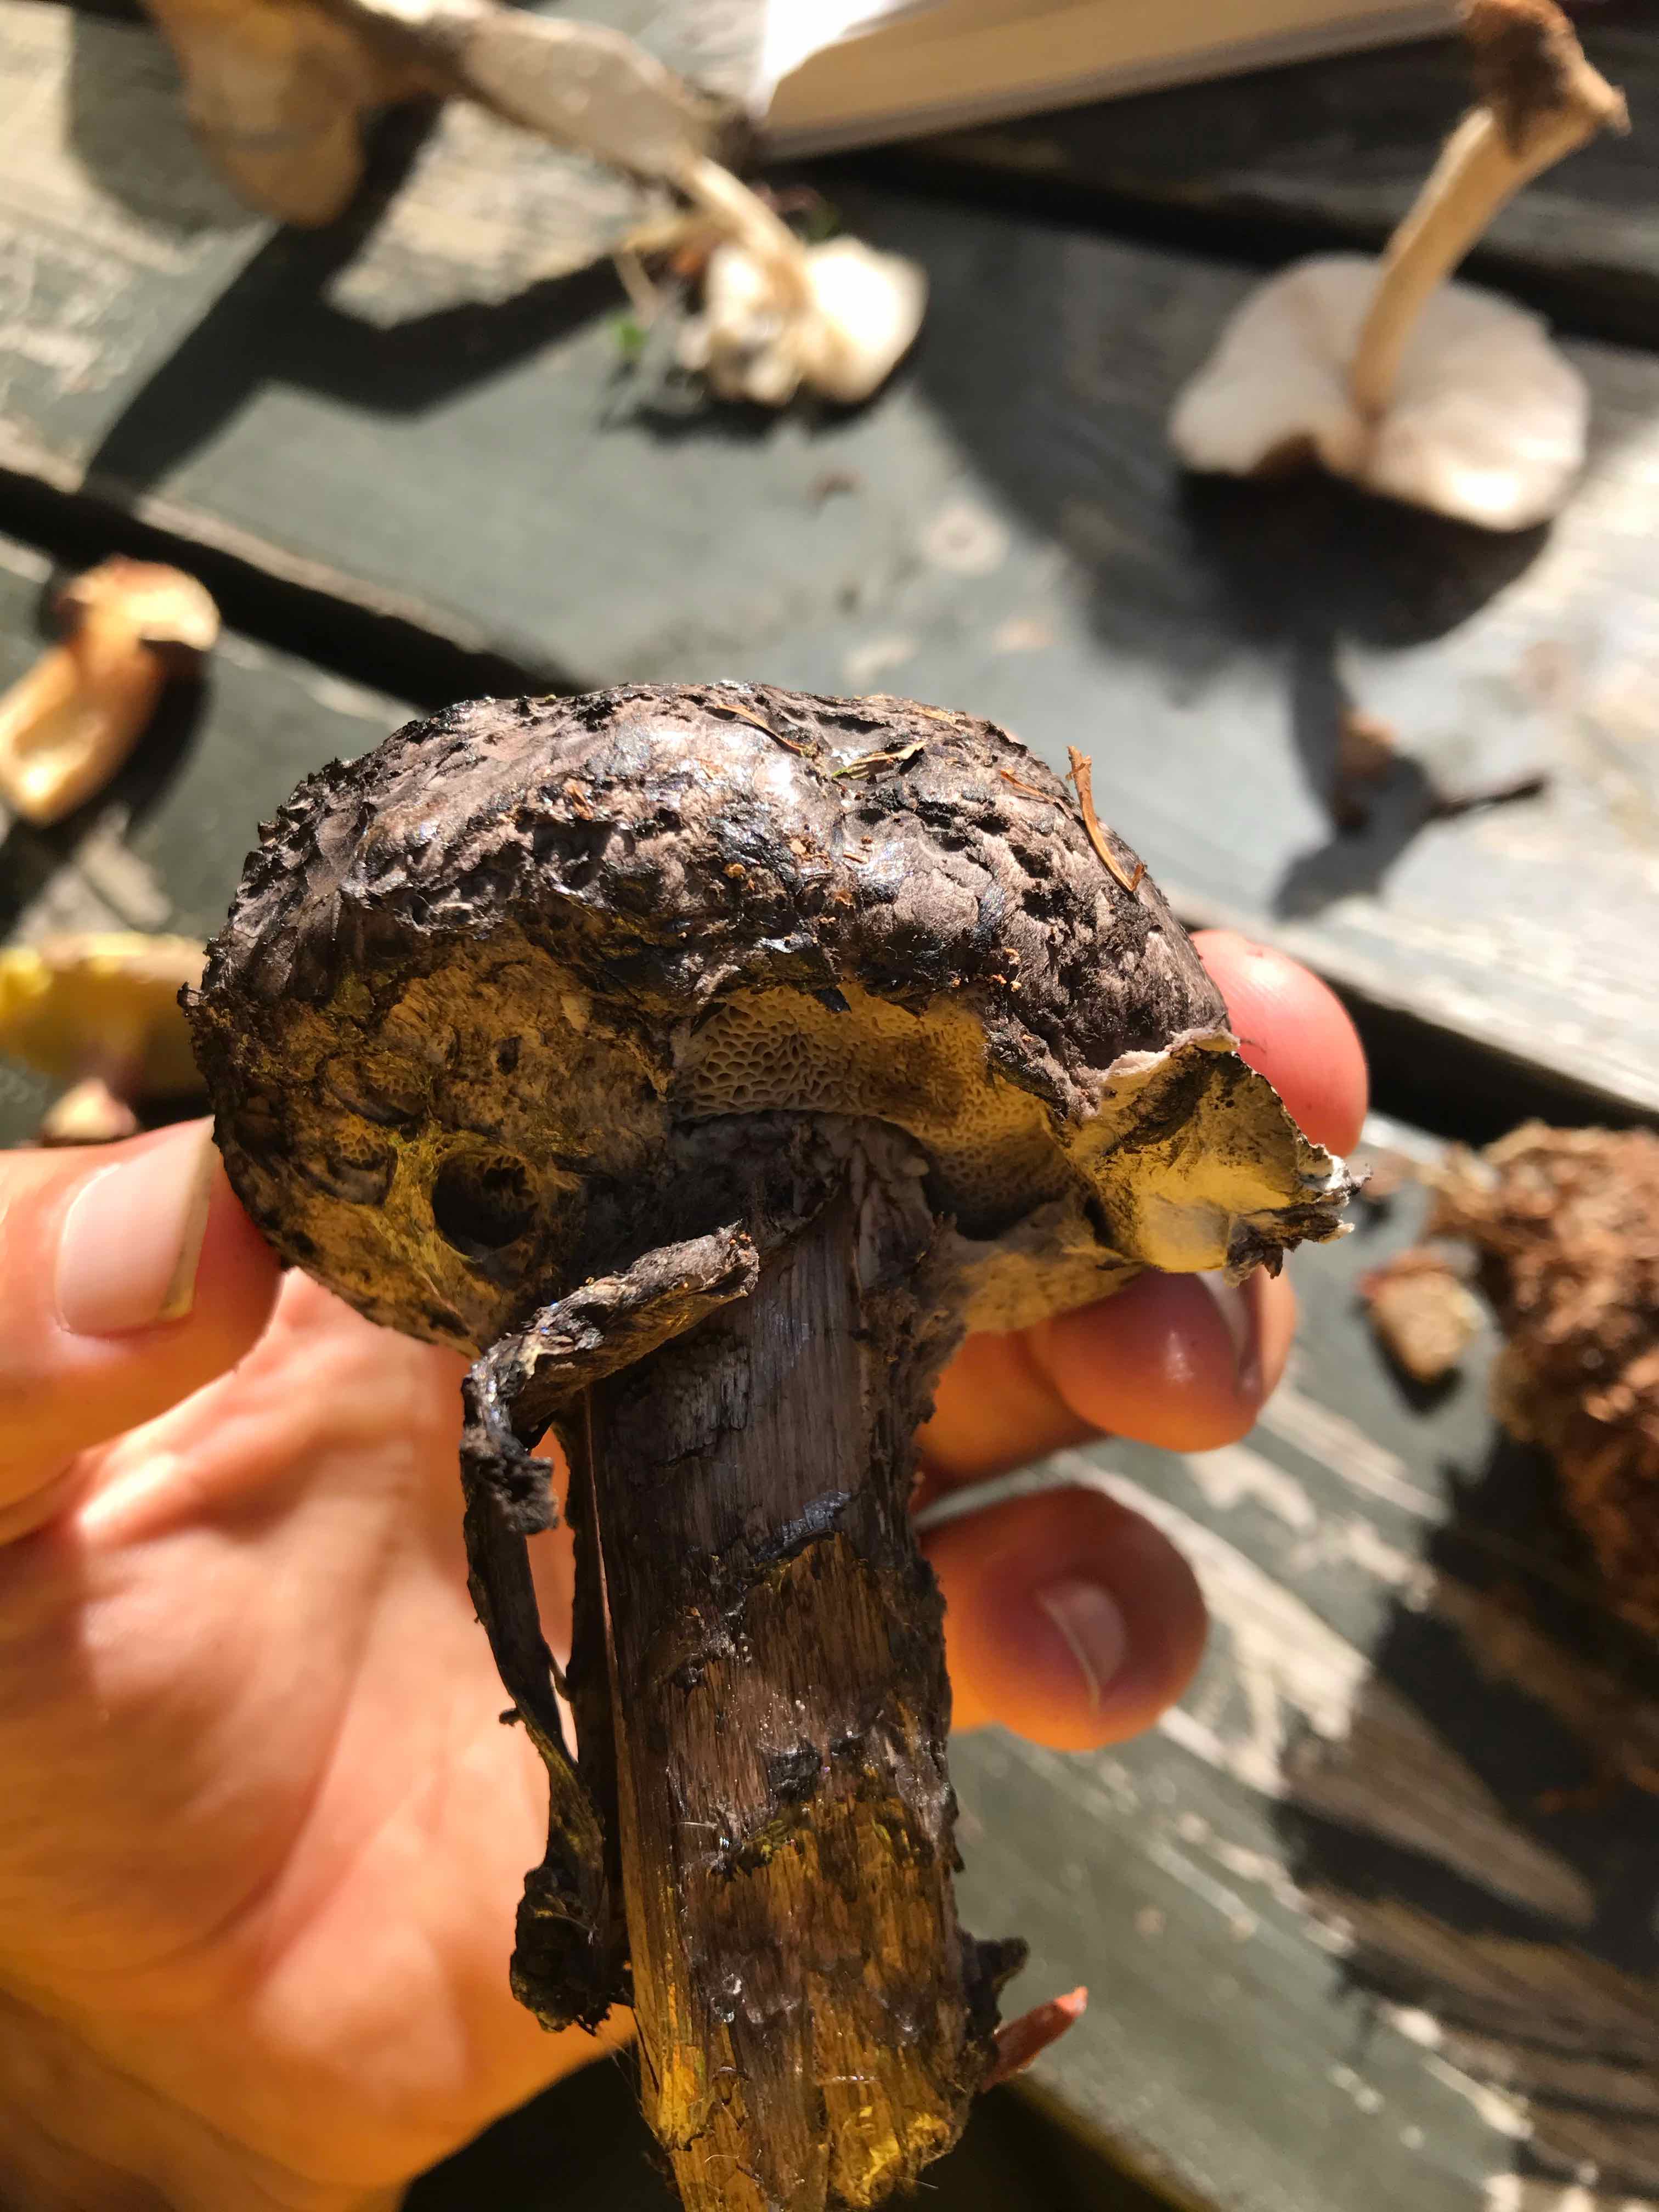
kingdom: Fungi
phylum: Basidiomycota
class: Agaricomycetes
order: Boletales
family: Boletaceae
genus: Strobilomyces
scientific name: Strobilomyces strobilaceus
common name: koglerørhat
